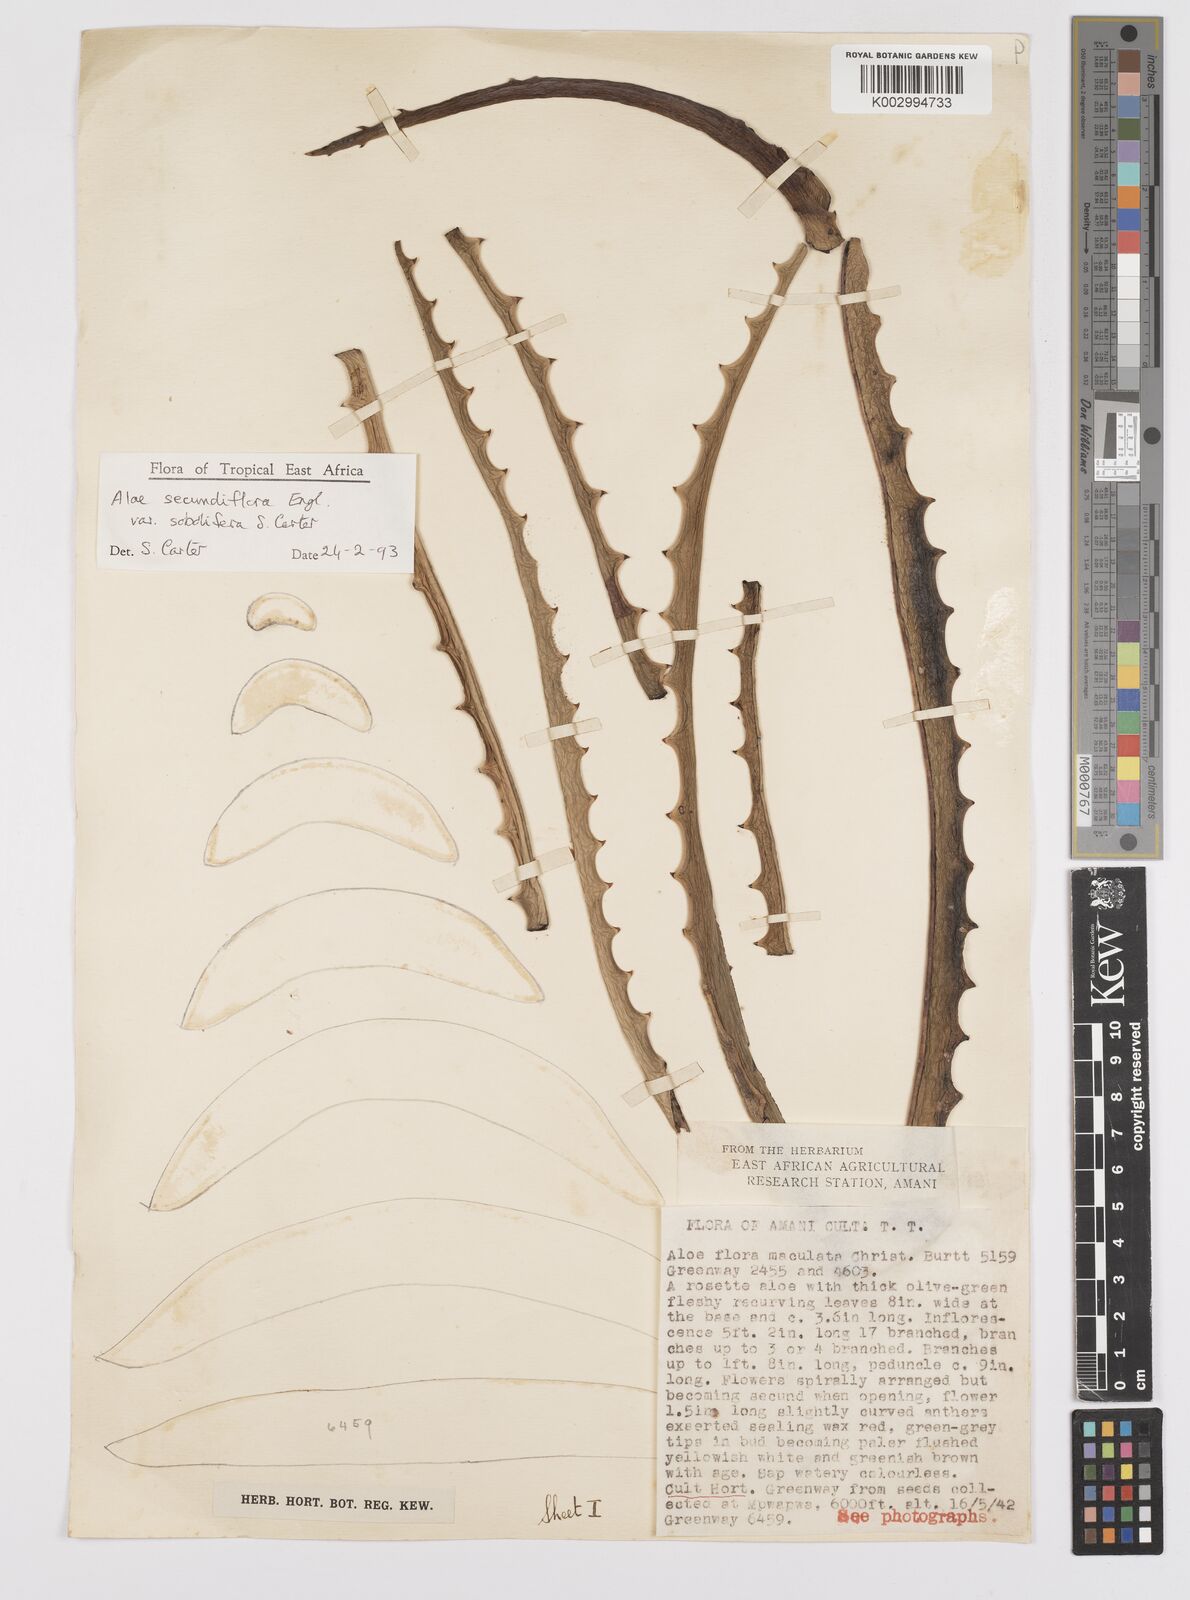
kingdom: Plantae
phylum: Tracheophyta
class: Liliopsida
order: Asparagales
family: Asphodelaceae
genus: Aloe
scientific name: Aloe sobolifera
